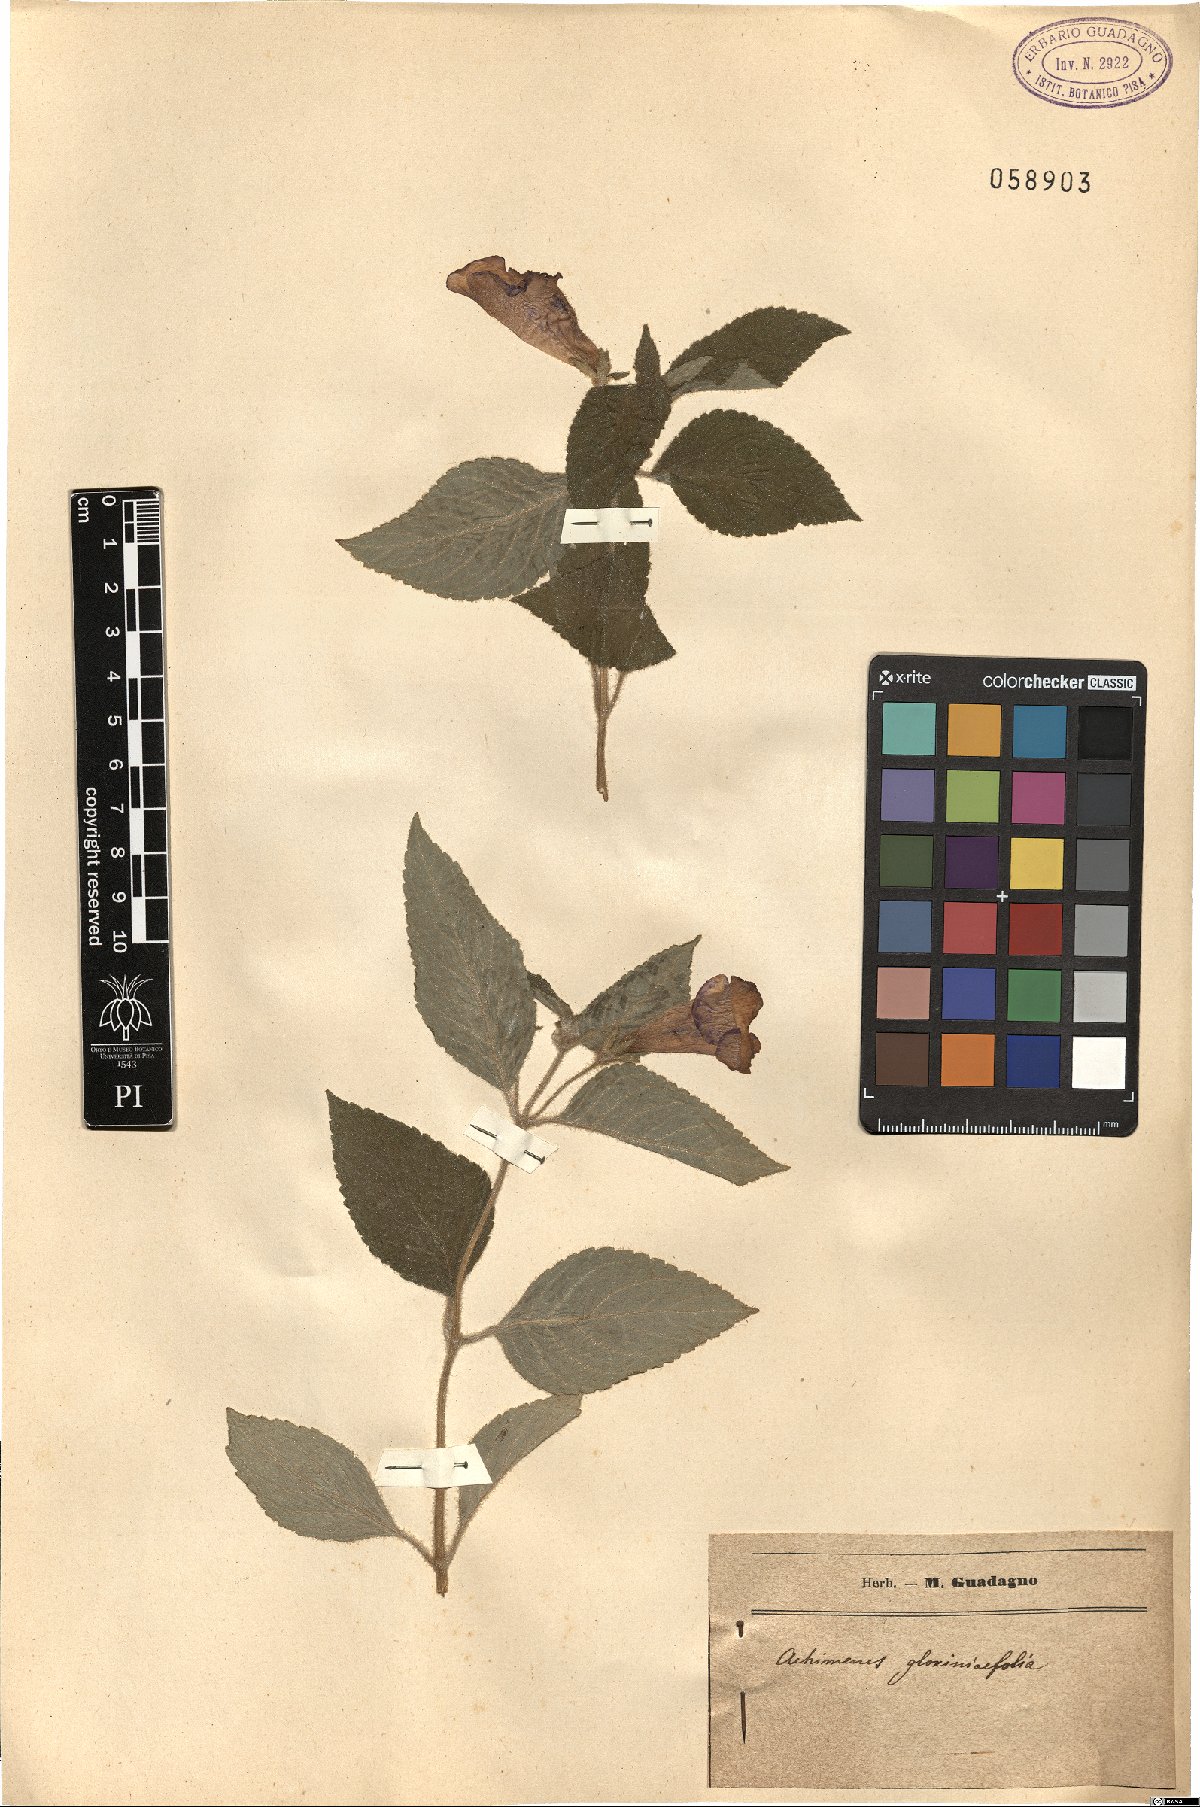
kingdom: Plantae
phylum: Tracheophyta
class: Magnoliopsida
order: Lamiales
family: Gesneriaceae
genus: Achimenes
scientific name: Achimenes glabrata
